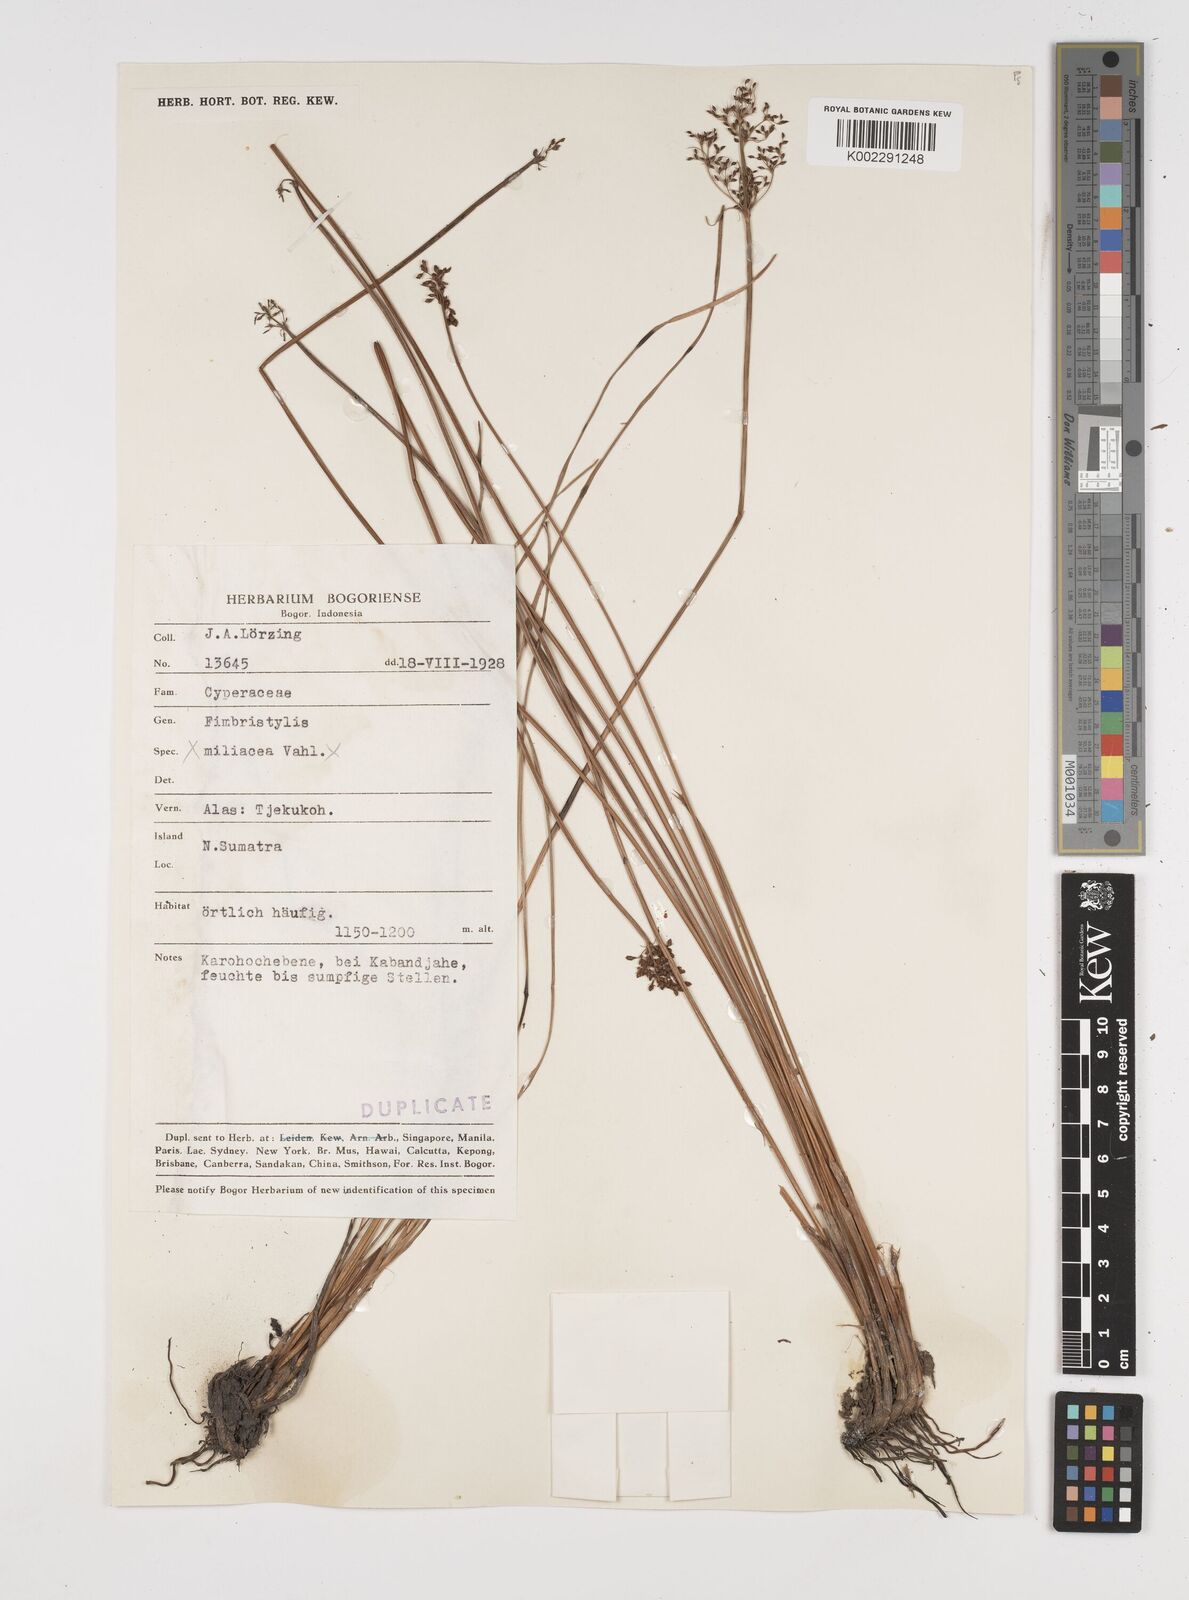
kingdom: Plantae
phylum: Tracheophyta
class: Liliopsida
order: Poales
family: Cyperaceae
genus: Fimbristylis
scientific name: Fimbristylis
